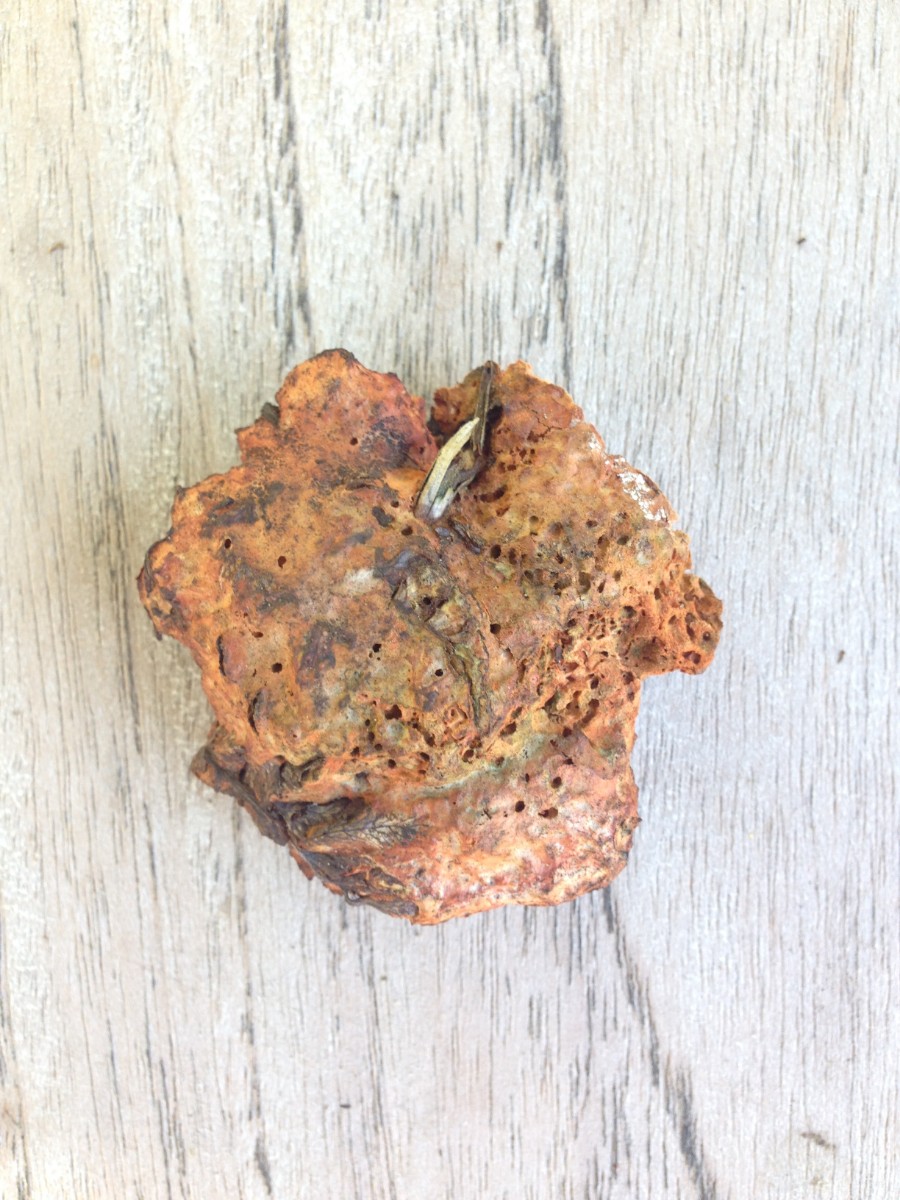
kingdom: Fungi
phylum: Basidiomycota
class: Agaricomycetes
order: Polyporales
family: Polyporaceae
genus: Trametes
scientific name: Trametes cinnabarina
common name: cinnoberporesvamp
